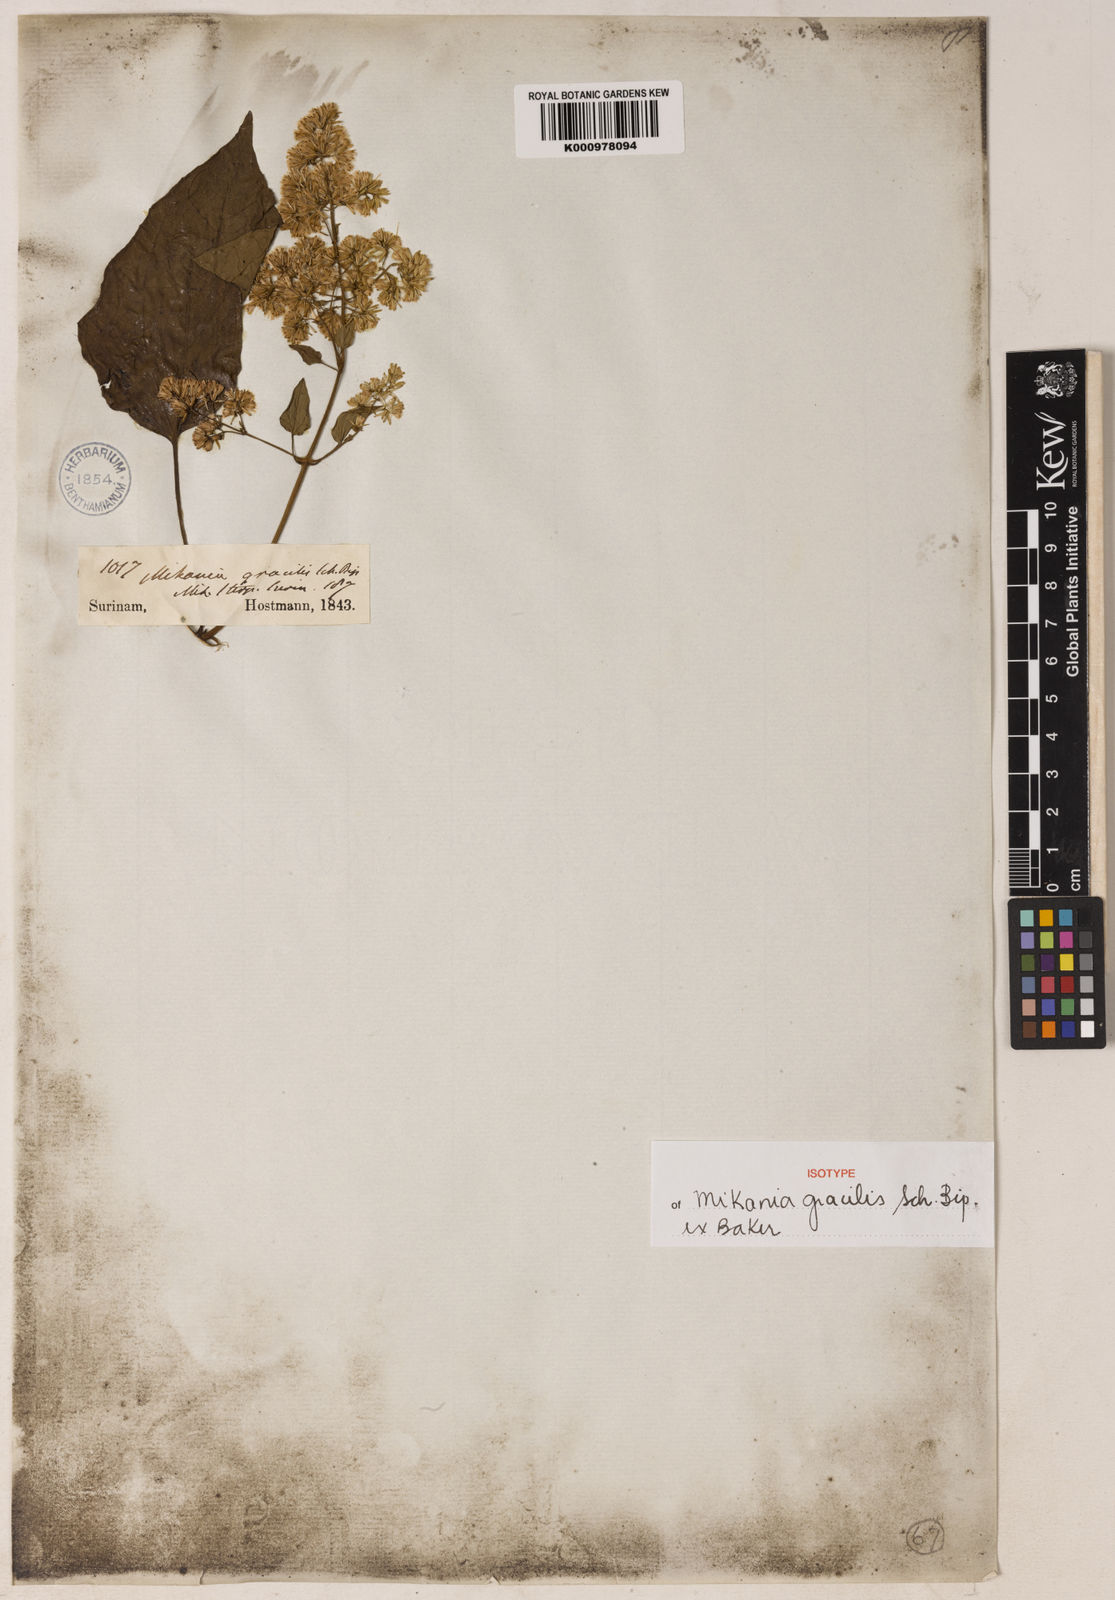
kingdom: Plantae
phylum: Tracheophyta
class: Magnoliopsida
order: Asterales
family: Asteraceae
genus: Mikania
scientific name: Mikania hookeriana
